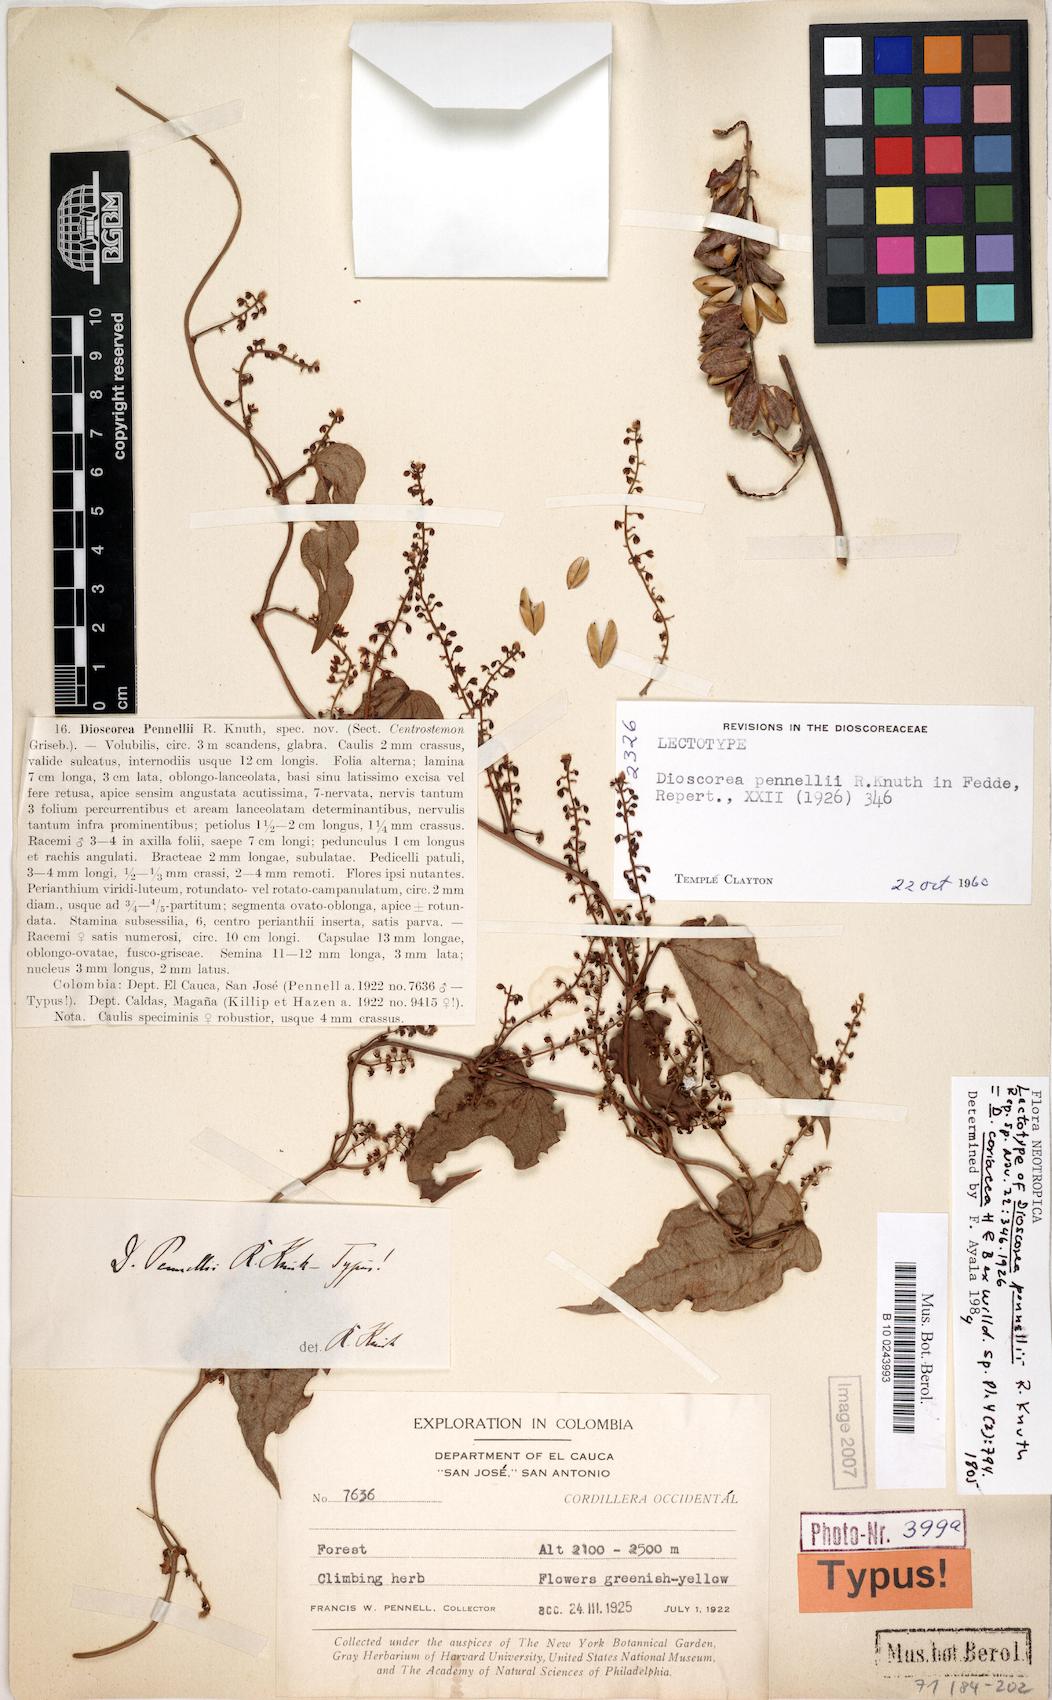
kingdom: Plantae
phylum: Tracheophyta
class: Liliopsida
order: Dioscoreales
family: Dioscoreaceae
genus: Dioscorea
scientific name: Dioscorea coriacea
